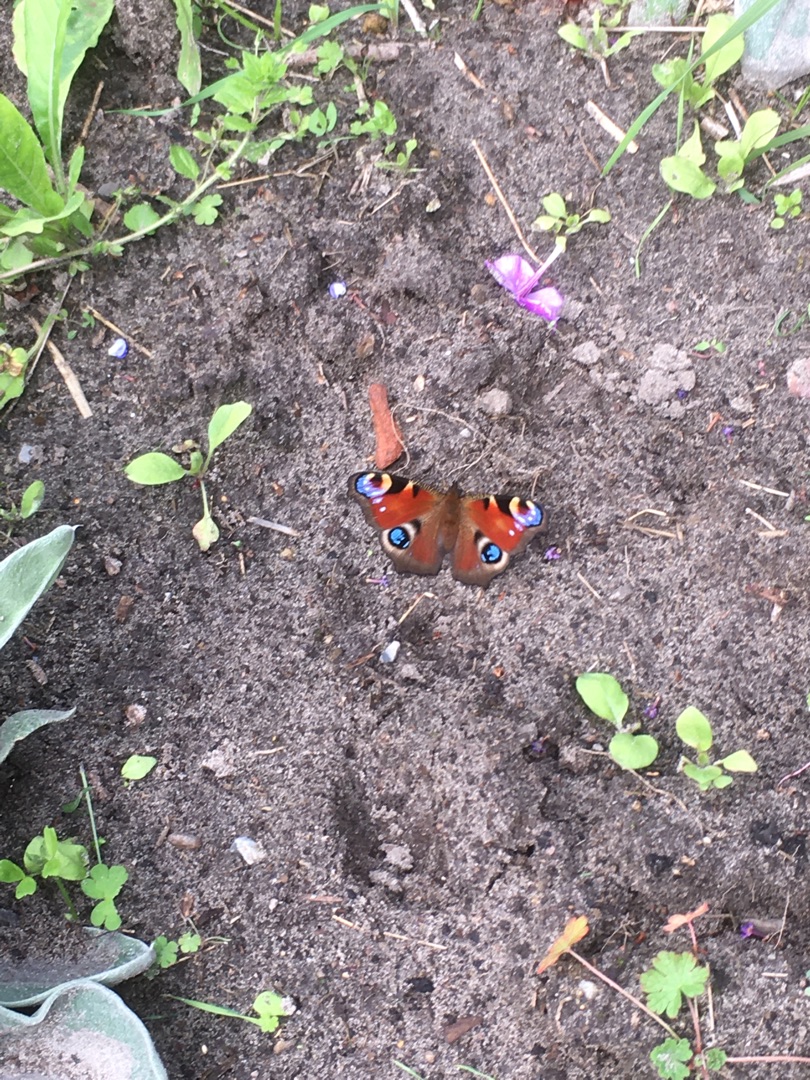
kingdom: Animalia
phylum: Arthropoda
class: Insecta
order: Lepidoptera
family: Nymphalidae
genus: Aglais
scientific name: Aglais io
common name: Dagpåfugleøje
